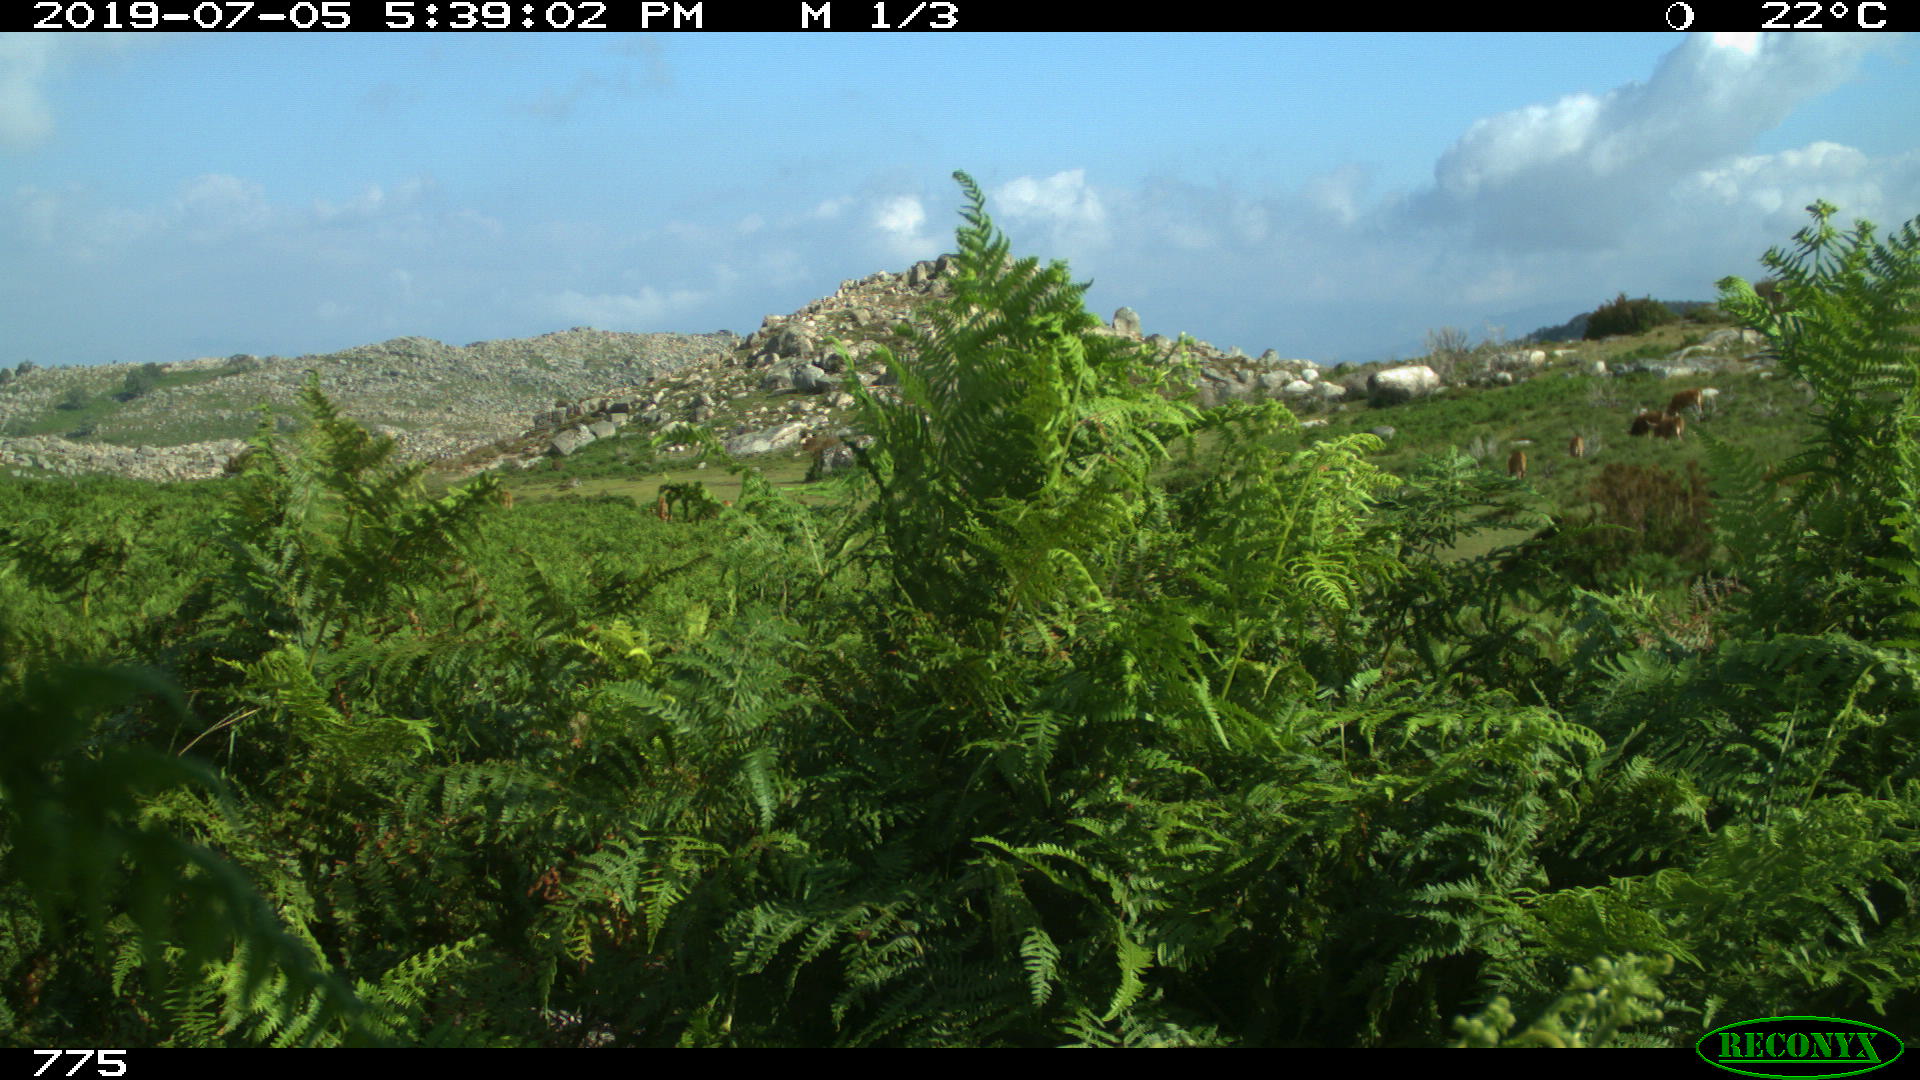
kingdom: Animalia
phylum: Chordata
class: Mammalia
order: Artiodactyla
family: Bovidae
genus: Bos
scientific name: Bos taurus
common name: Domesticated cattle
